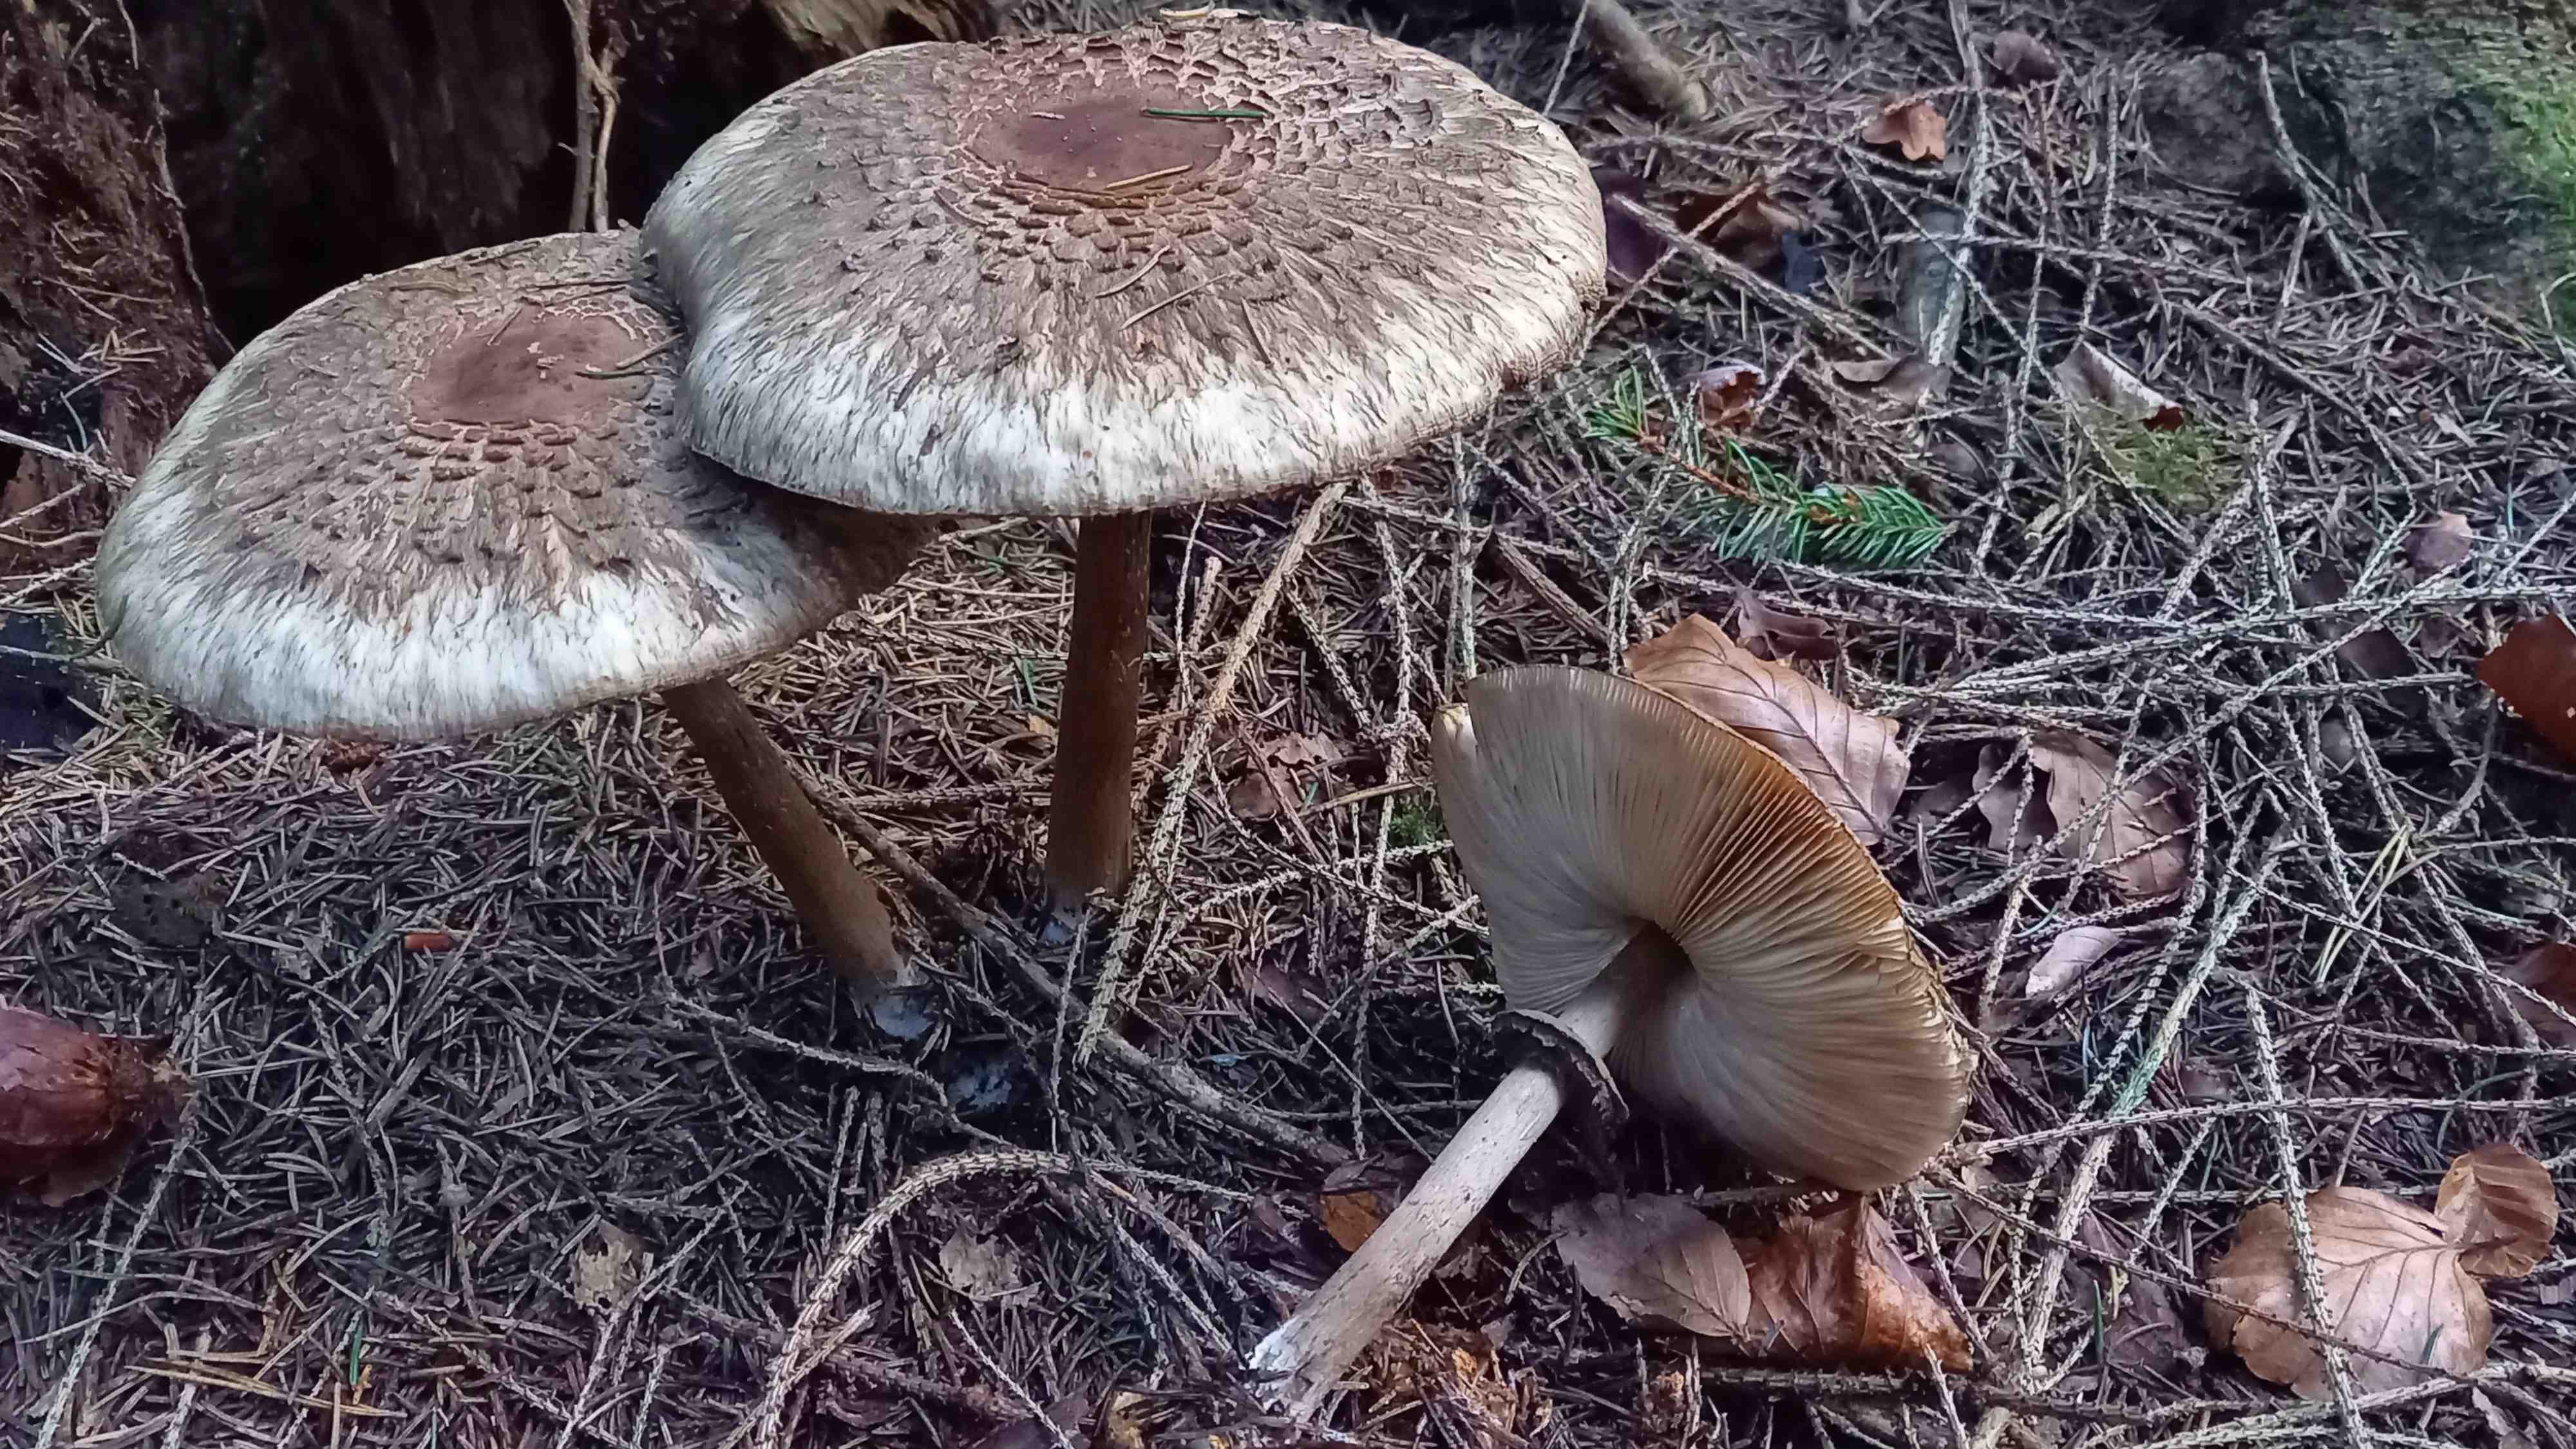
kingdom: Fungi
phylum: Basidiomycota
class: Agaricomycetes
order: Agaricales
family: Agaricaceae
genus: Chlorophyllum
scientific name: Chlorophyllum olivieri
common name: almindelig rabarberhat
